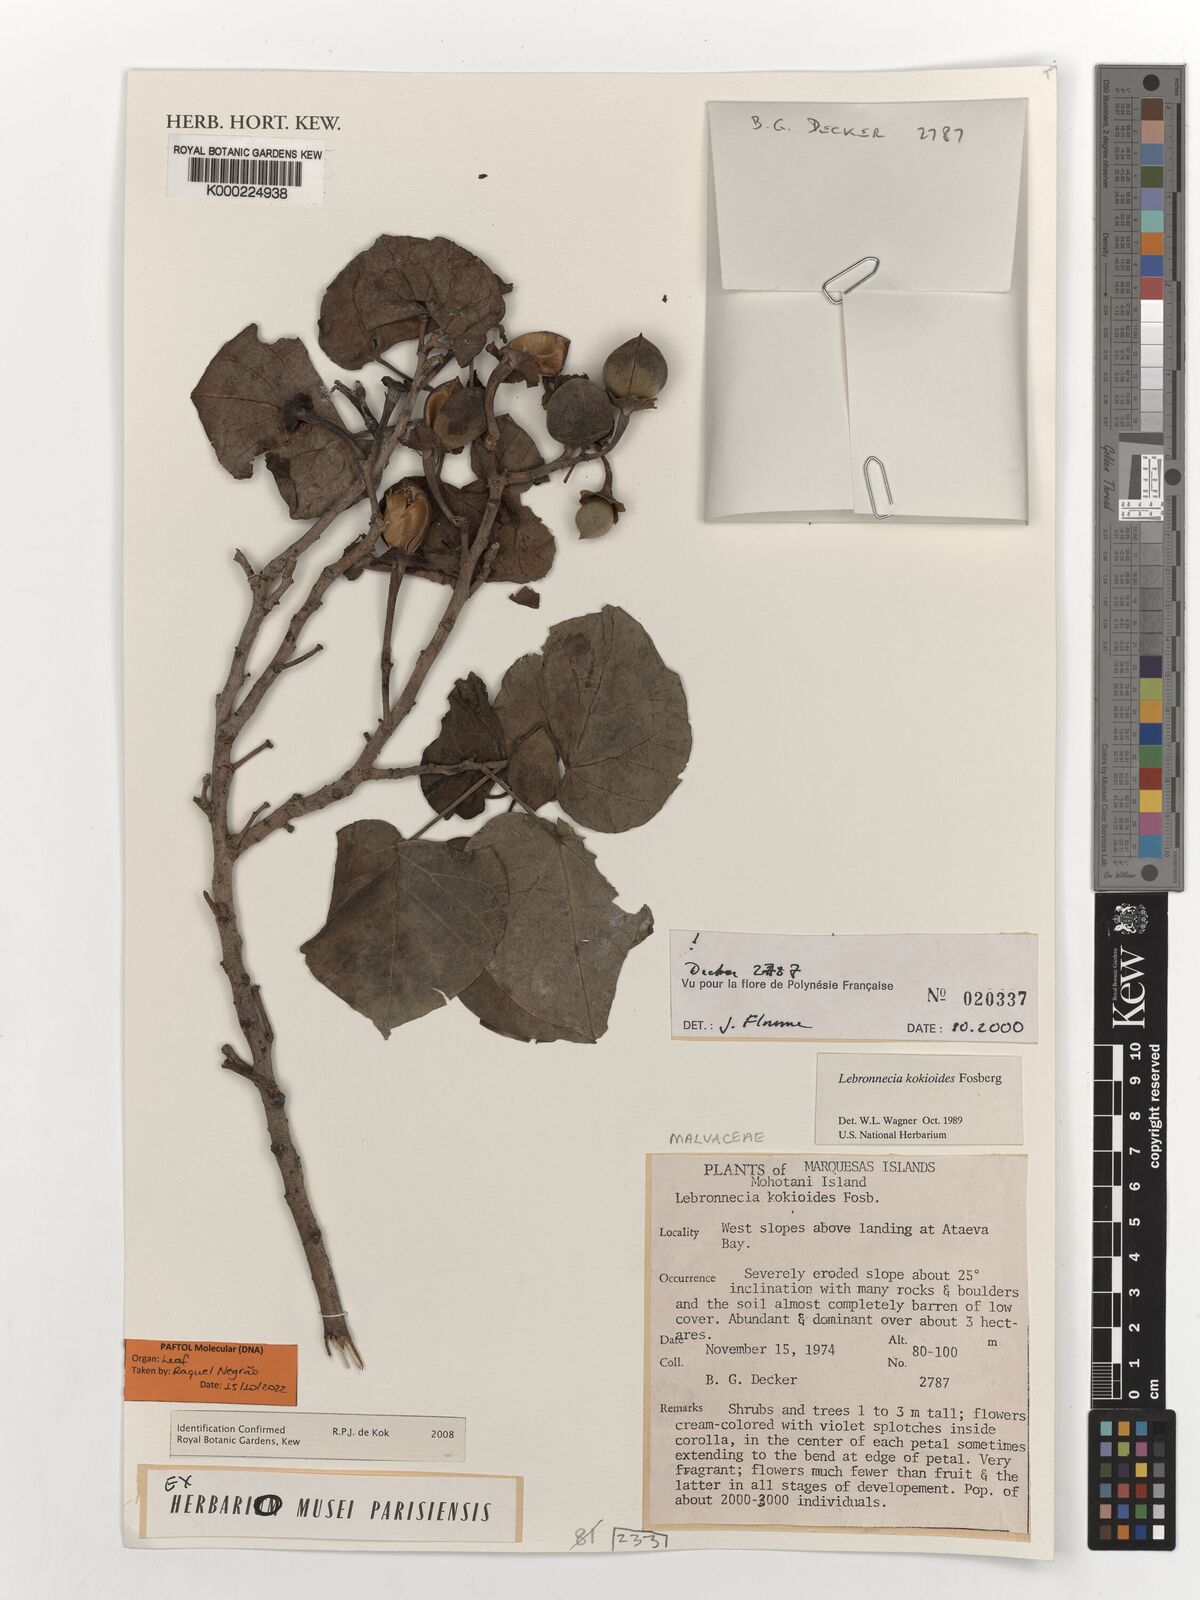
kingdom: Plantae
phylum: Tracheophyta
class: Magnoliopsida
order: Malvales
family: Malvaceae
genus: Lebronnecia
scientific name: Lebronnecia kokioides
